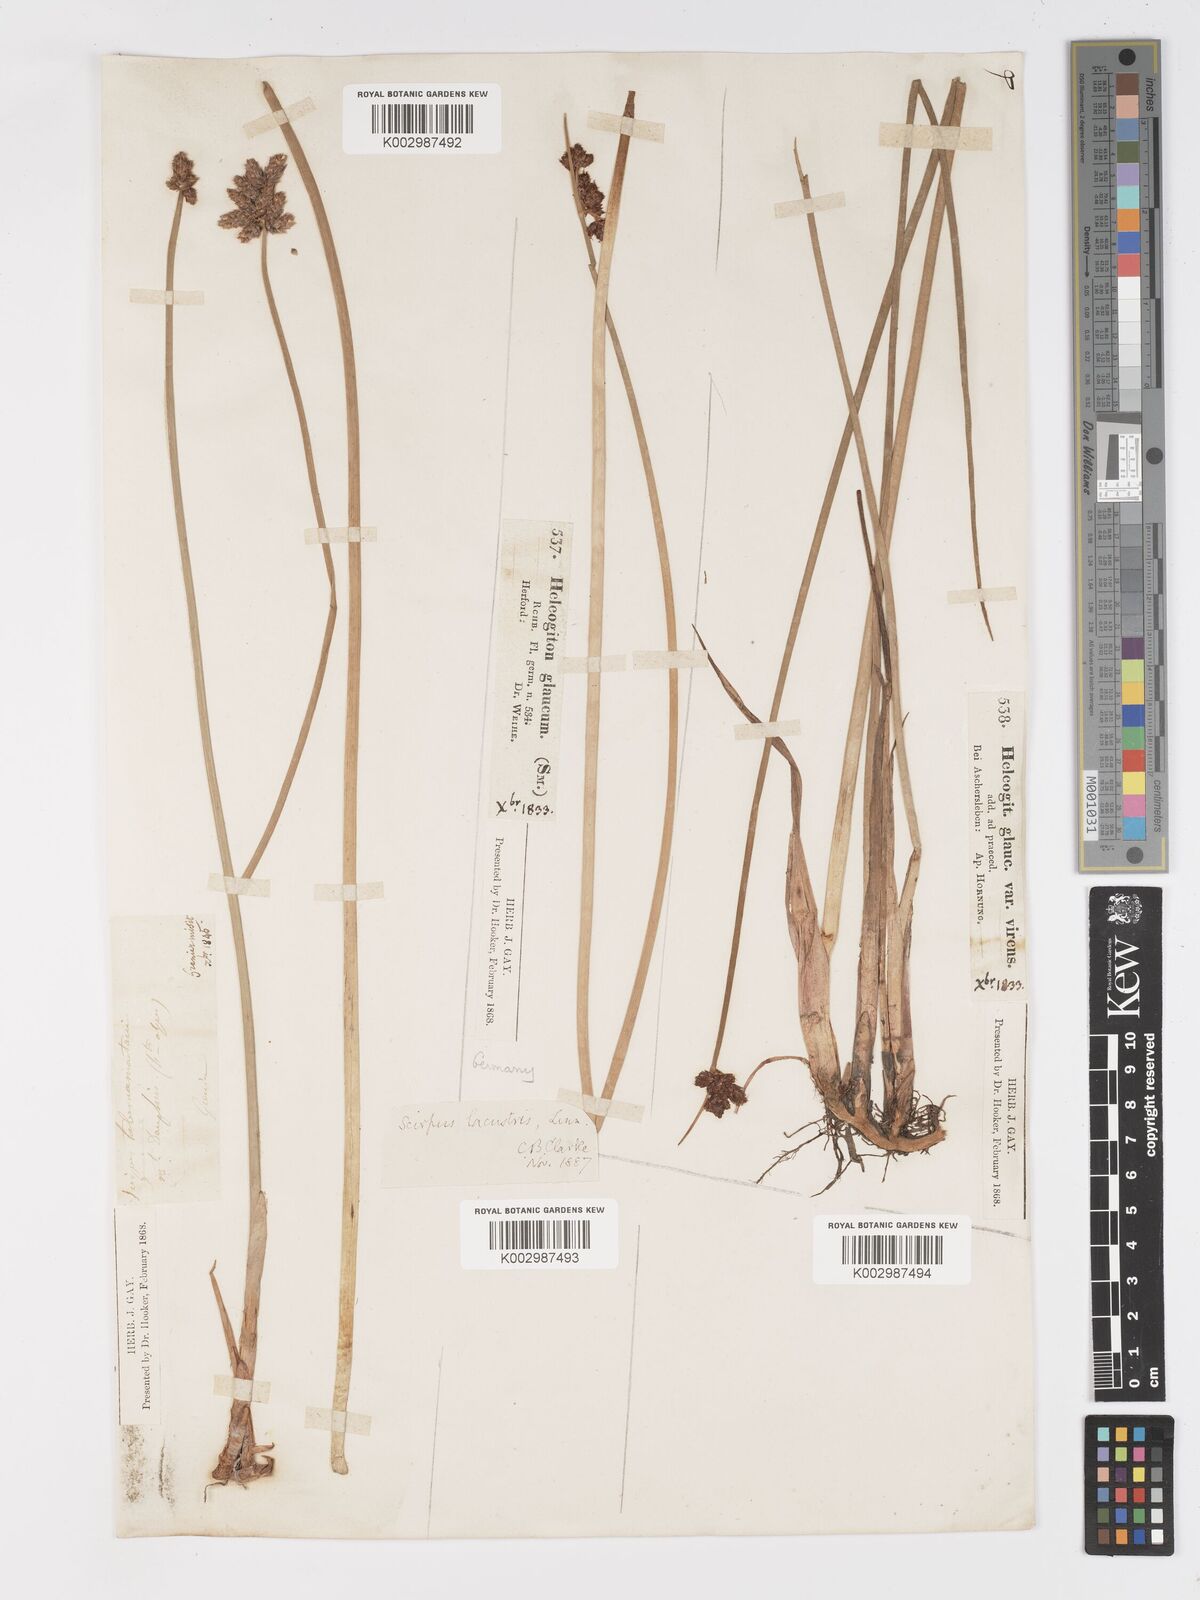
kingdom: Plantae
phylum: Tracheophyta
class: Liliopsida
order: Poales
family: Cyperaceae
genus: Schoenoplectus
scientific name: Schoenoplectus lacustris
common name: Common club-rush
